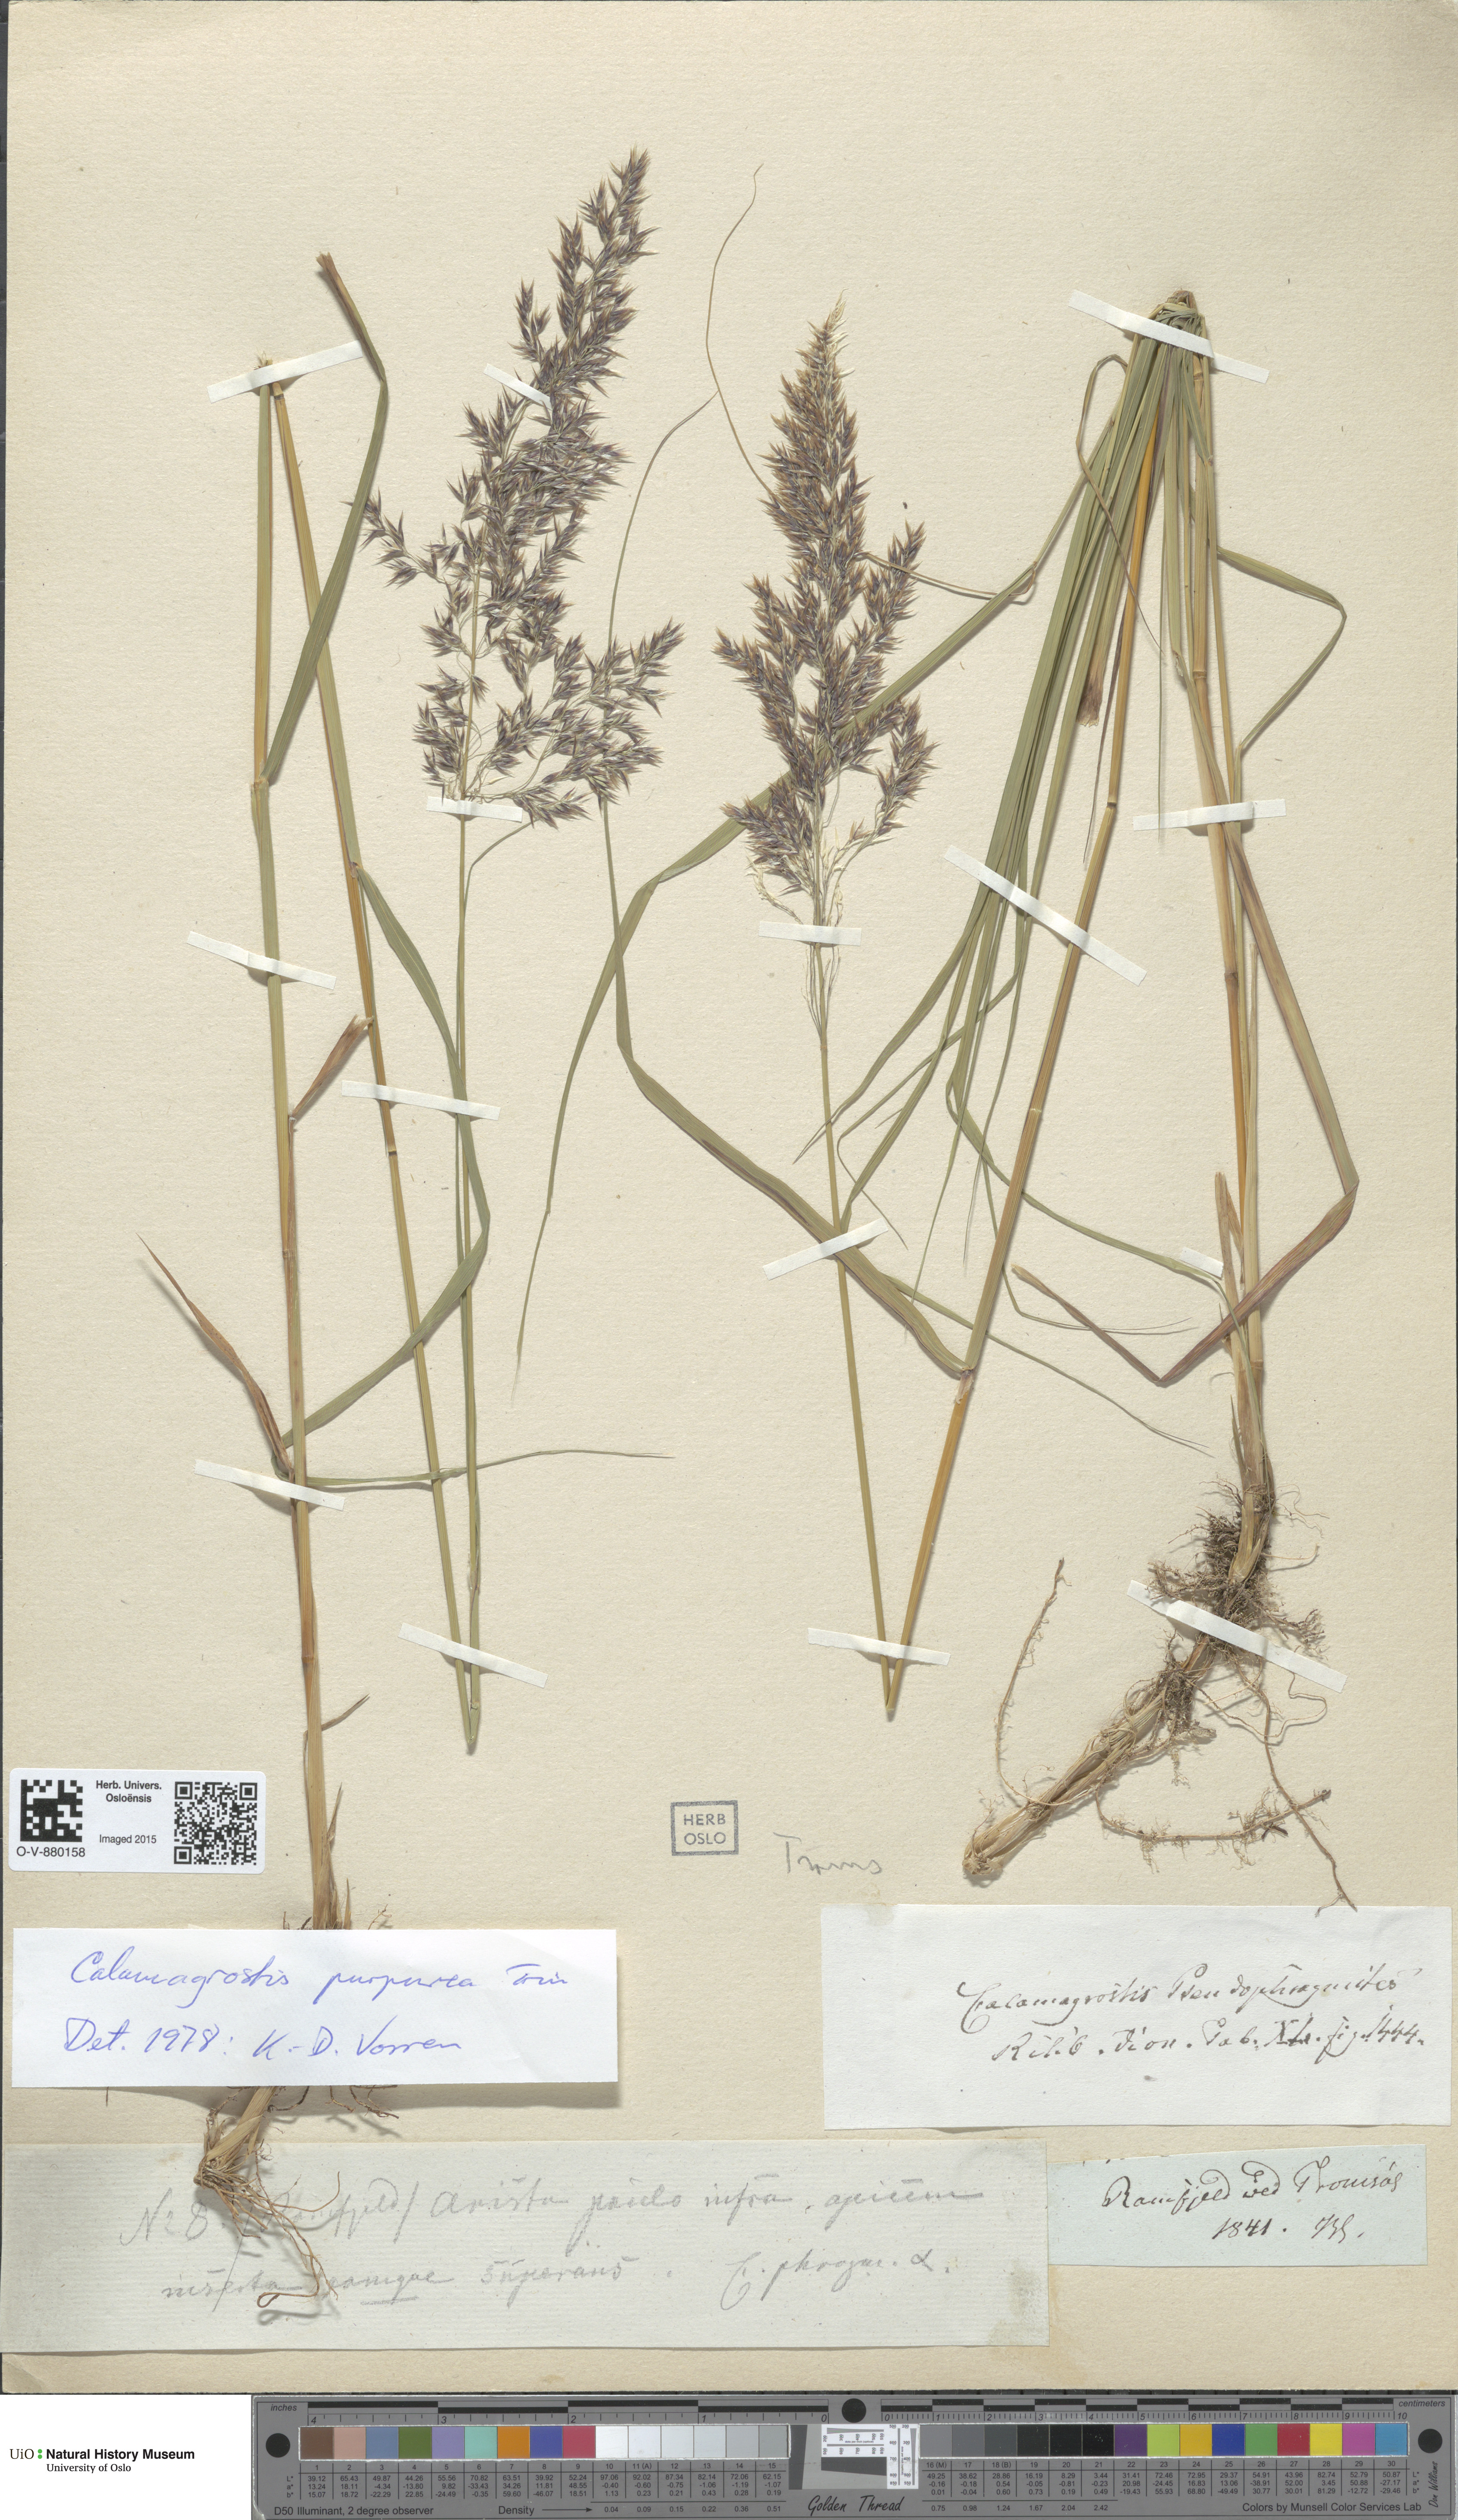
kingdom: Plantae
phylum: Tracheophyta
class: Liliopsida
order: Poales
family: Poaceae
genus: Calamagrostis
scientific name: Calamagrostis purpurea
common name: Scandinavian small-reed
